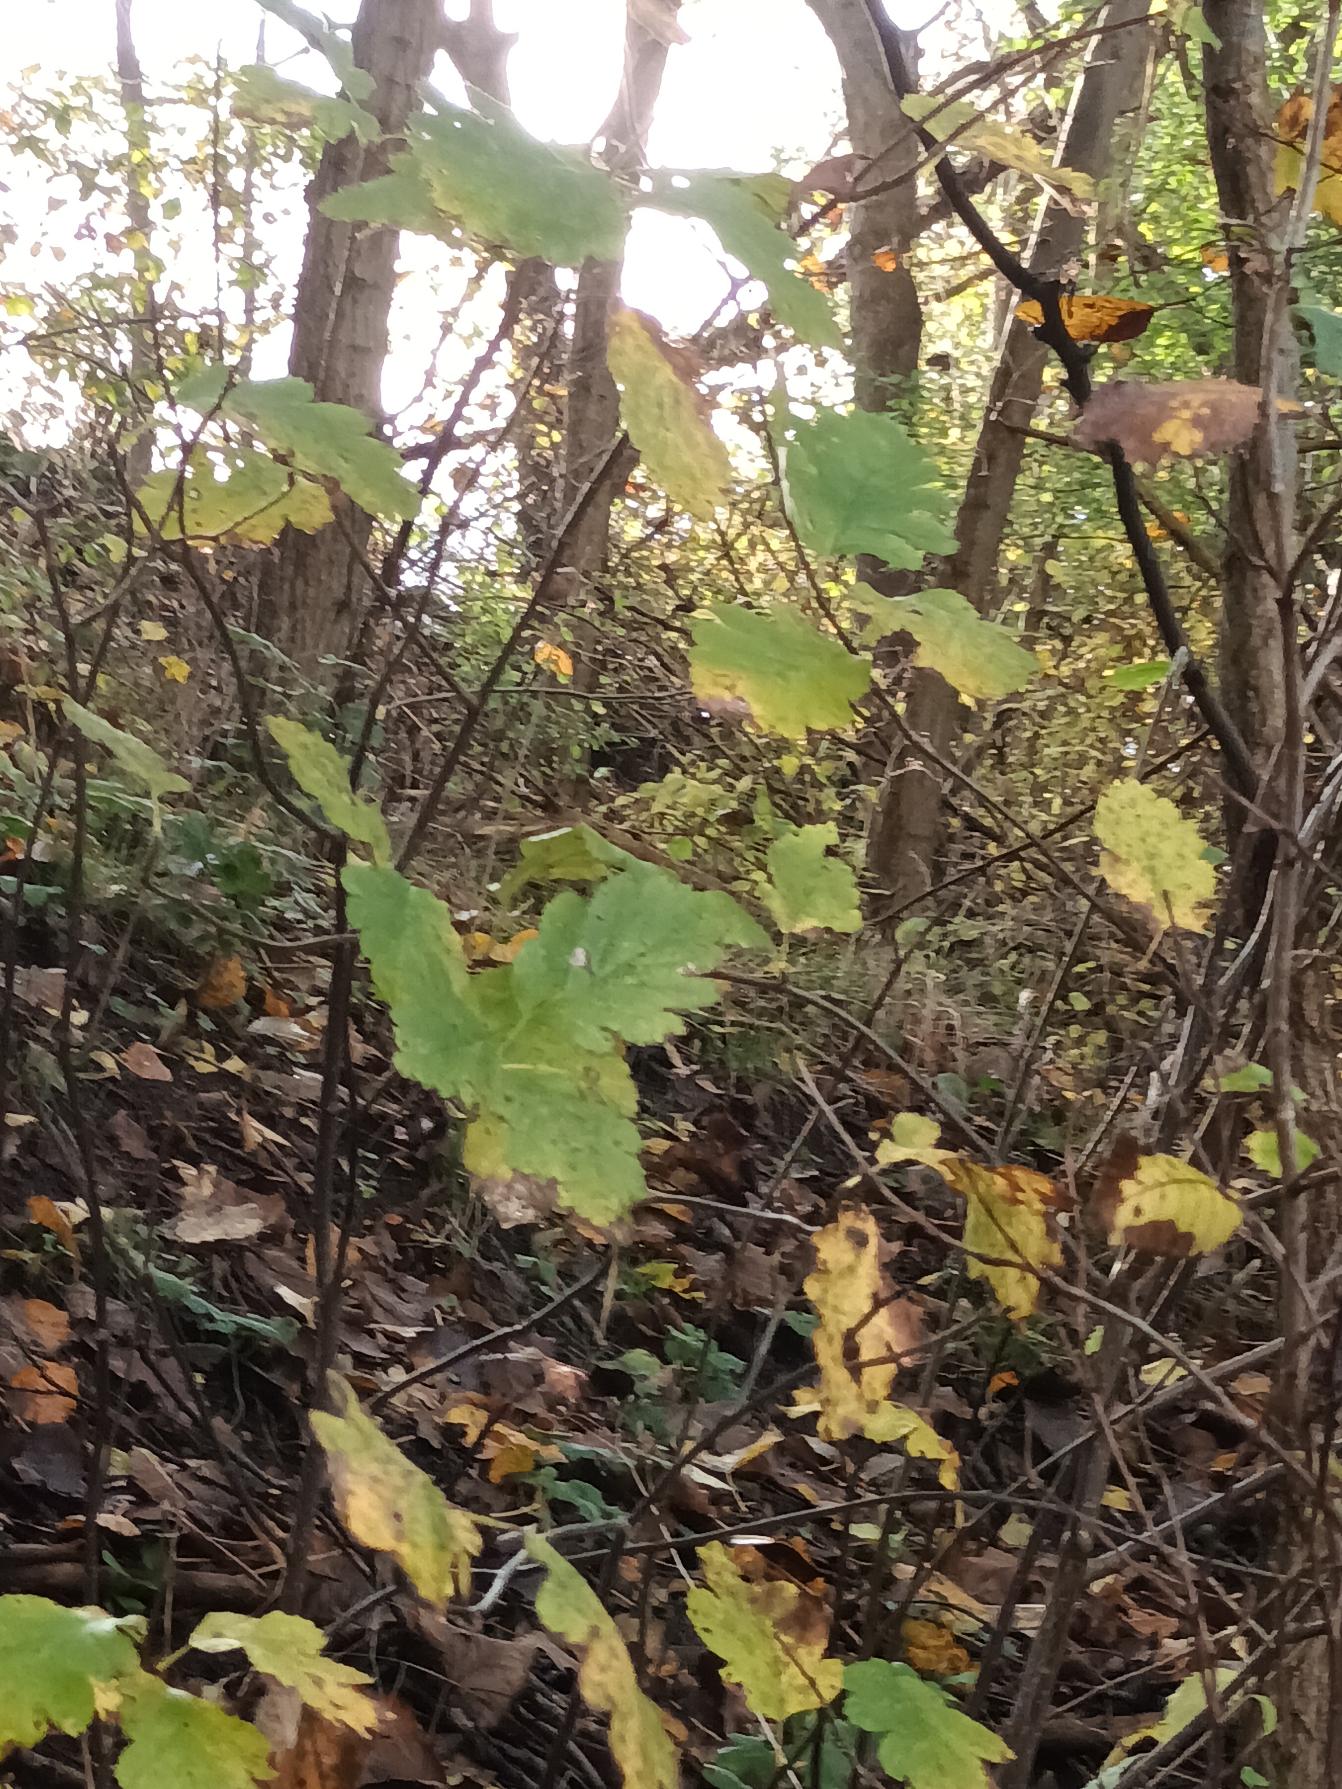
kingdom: Plantae
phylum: Tracheophyta
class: Magnoliopsida
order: Rosales
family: Rosaceae
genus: Scandosorbus
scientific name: Scandosorbus intermedia
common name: Selje-røn
